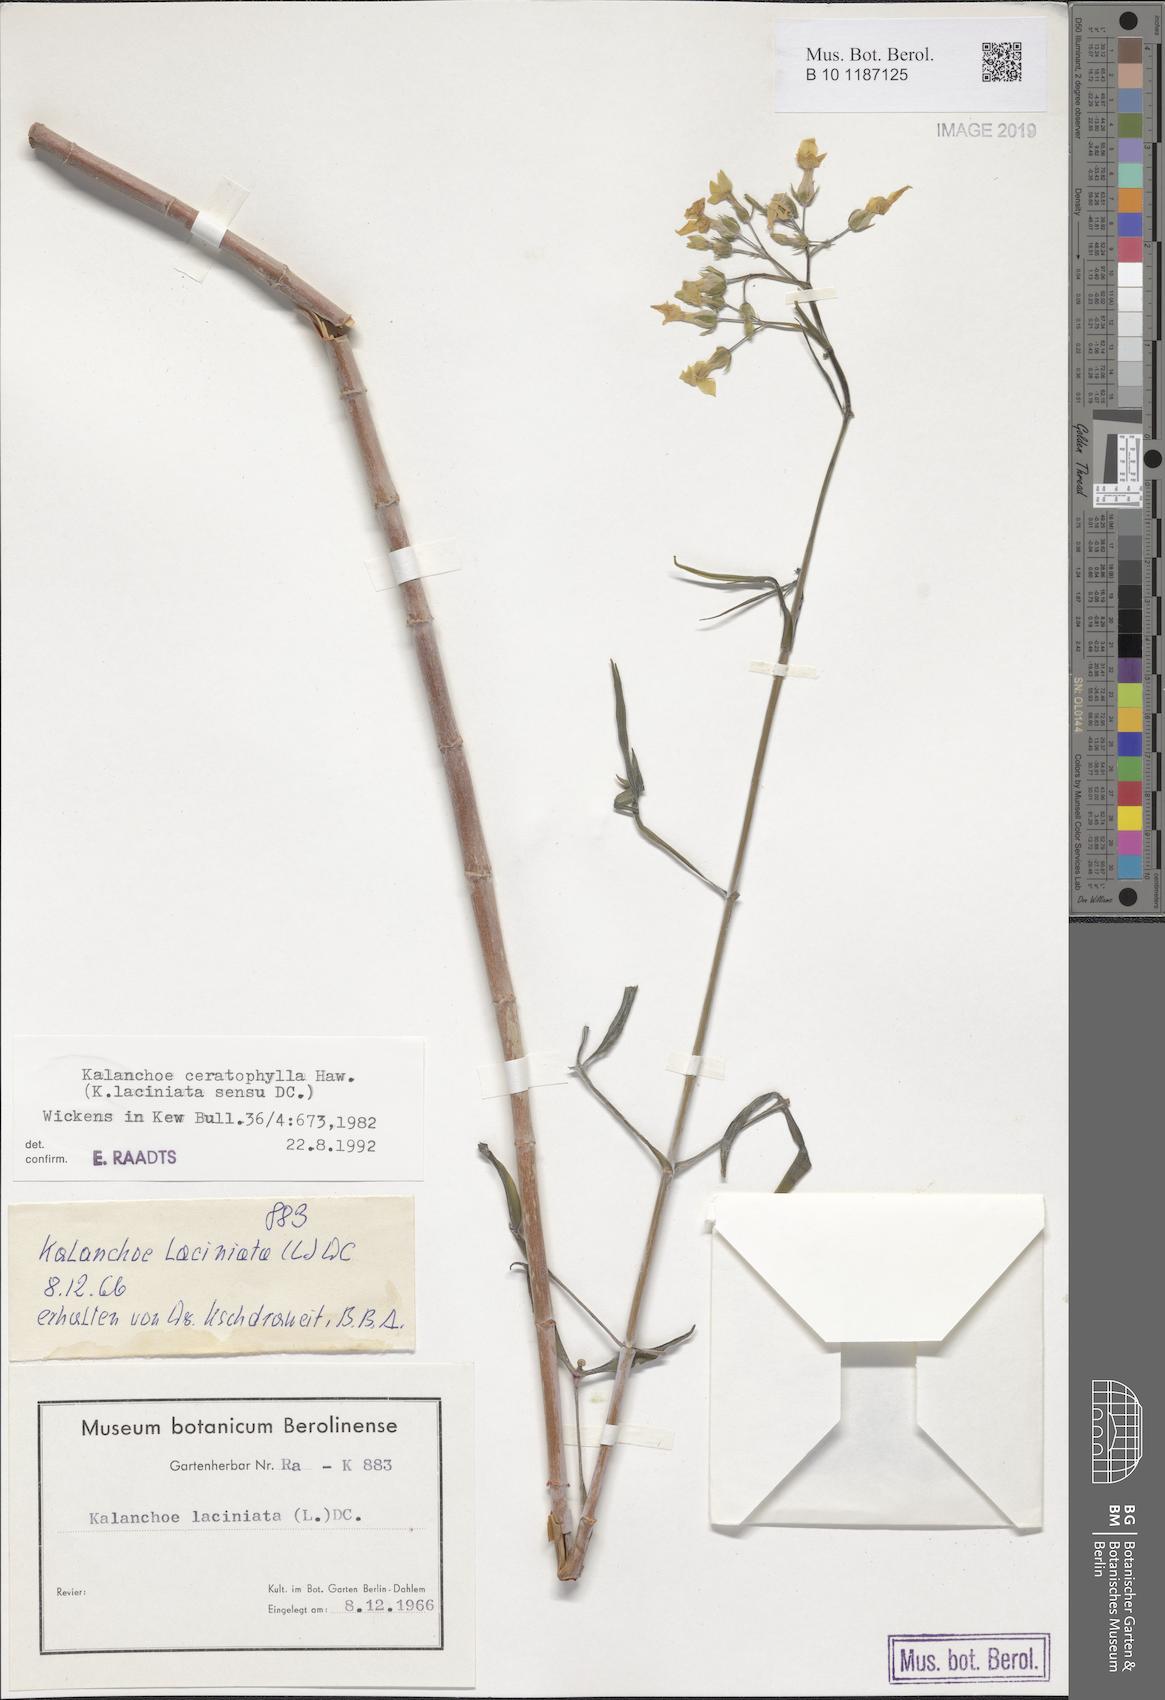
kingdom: Plantae
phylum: Tracheophyta
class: Magnoliopsida
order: Saxifragales
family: Crassulaceae
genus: Kalanchoe
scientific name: Kalanchoe ceratophylla
